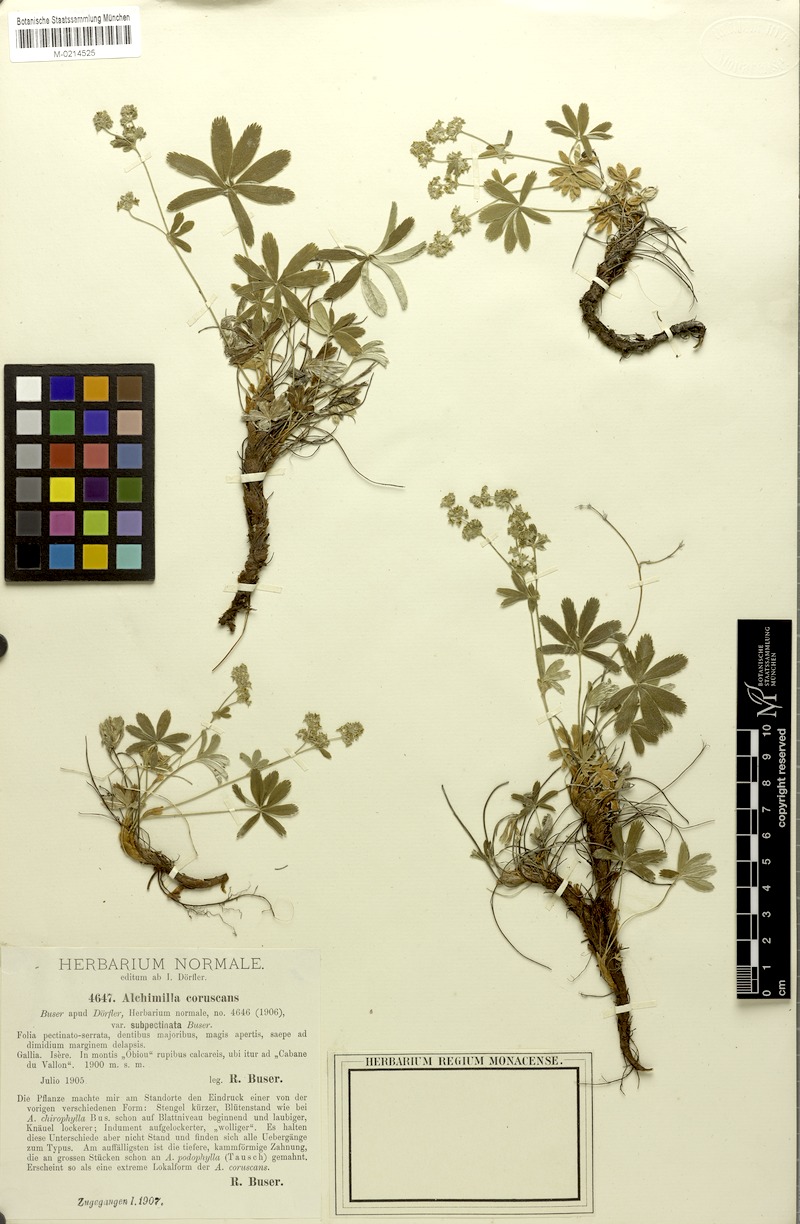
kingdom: Plantae
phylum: Tracheophyta
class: Magnoliopsida
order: Rosales
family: Rosaceae
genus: Alchemilla
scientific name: Alchemilla coruscans
